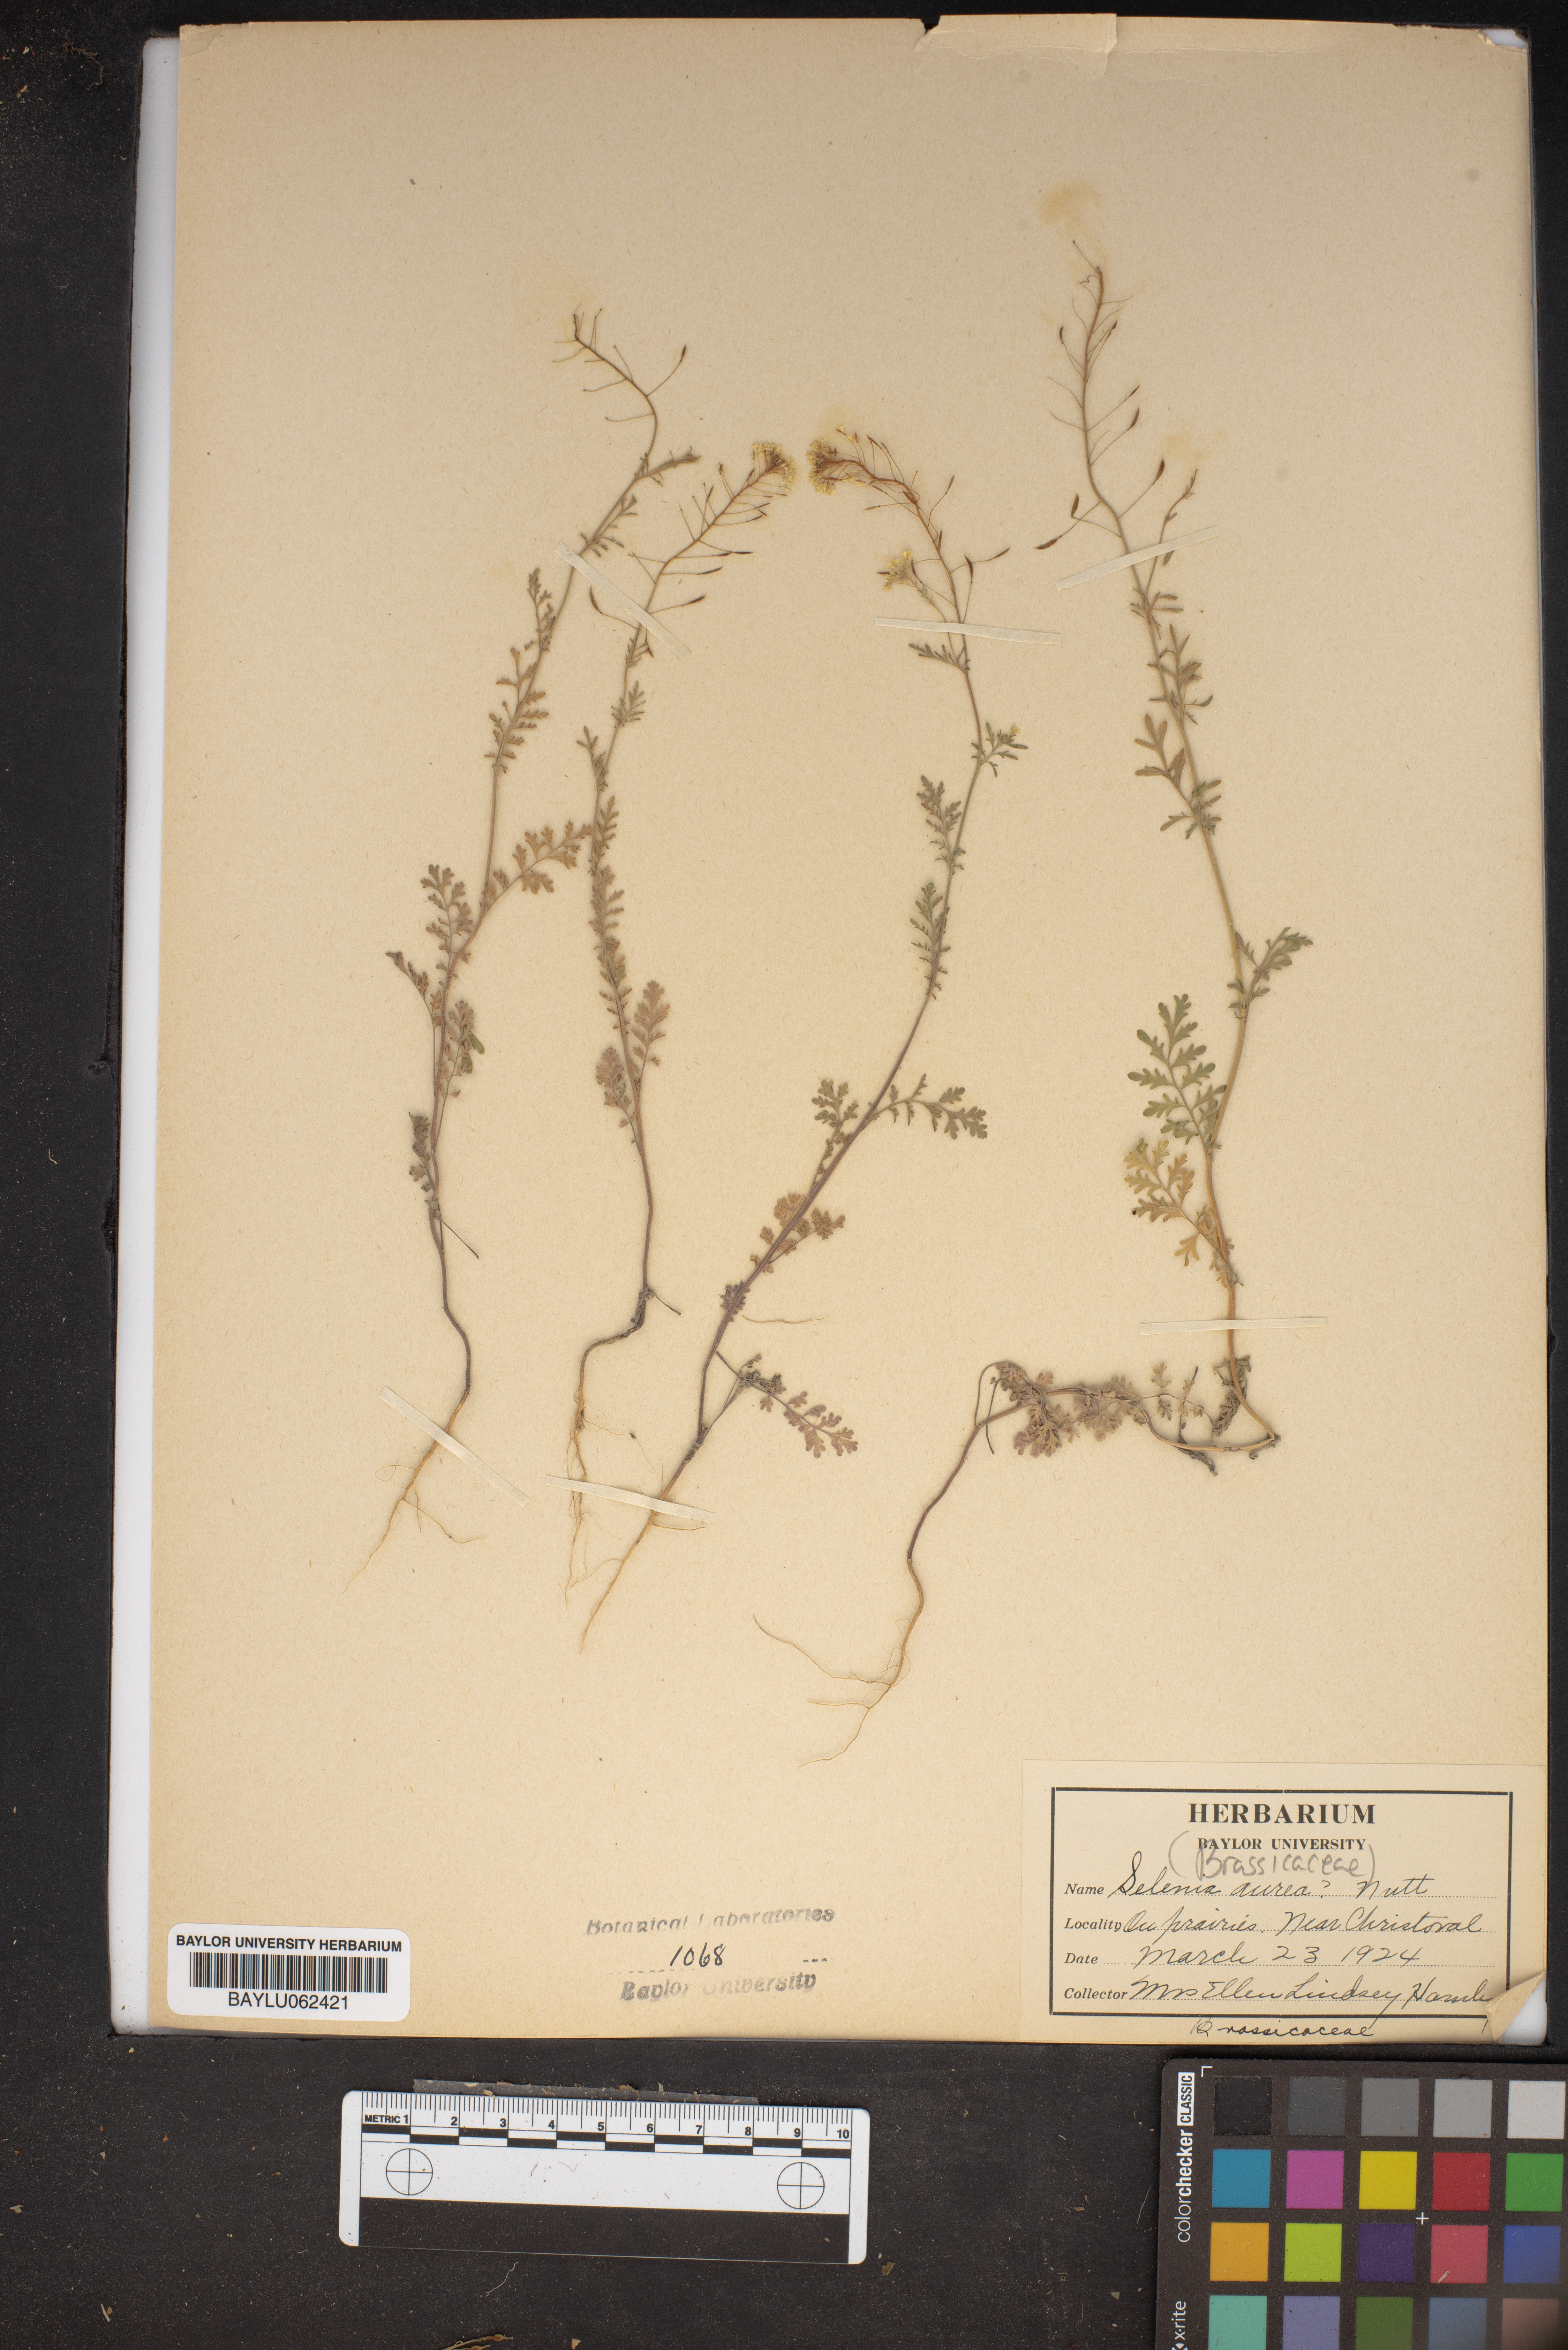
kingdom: Plantae
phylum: Tracheophyta
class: Magnoliopsida
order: Brassicales
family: Brassicaceae
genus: Selenia
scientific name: Selenia aurea
